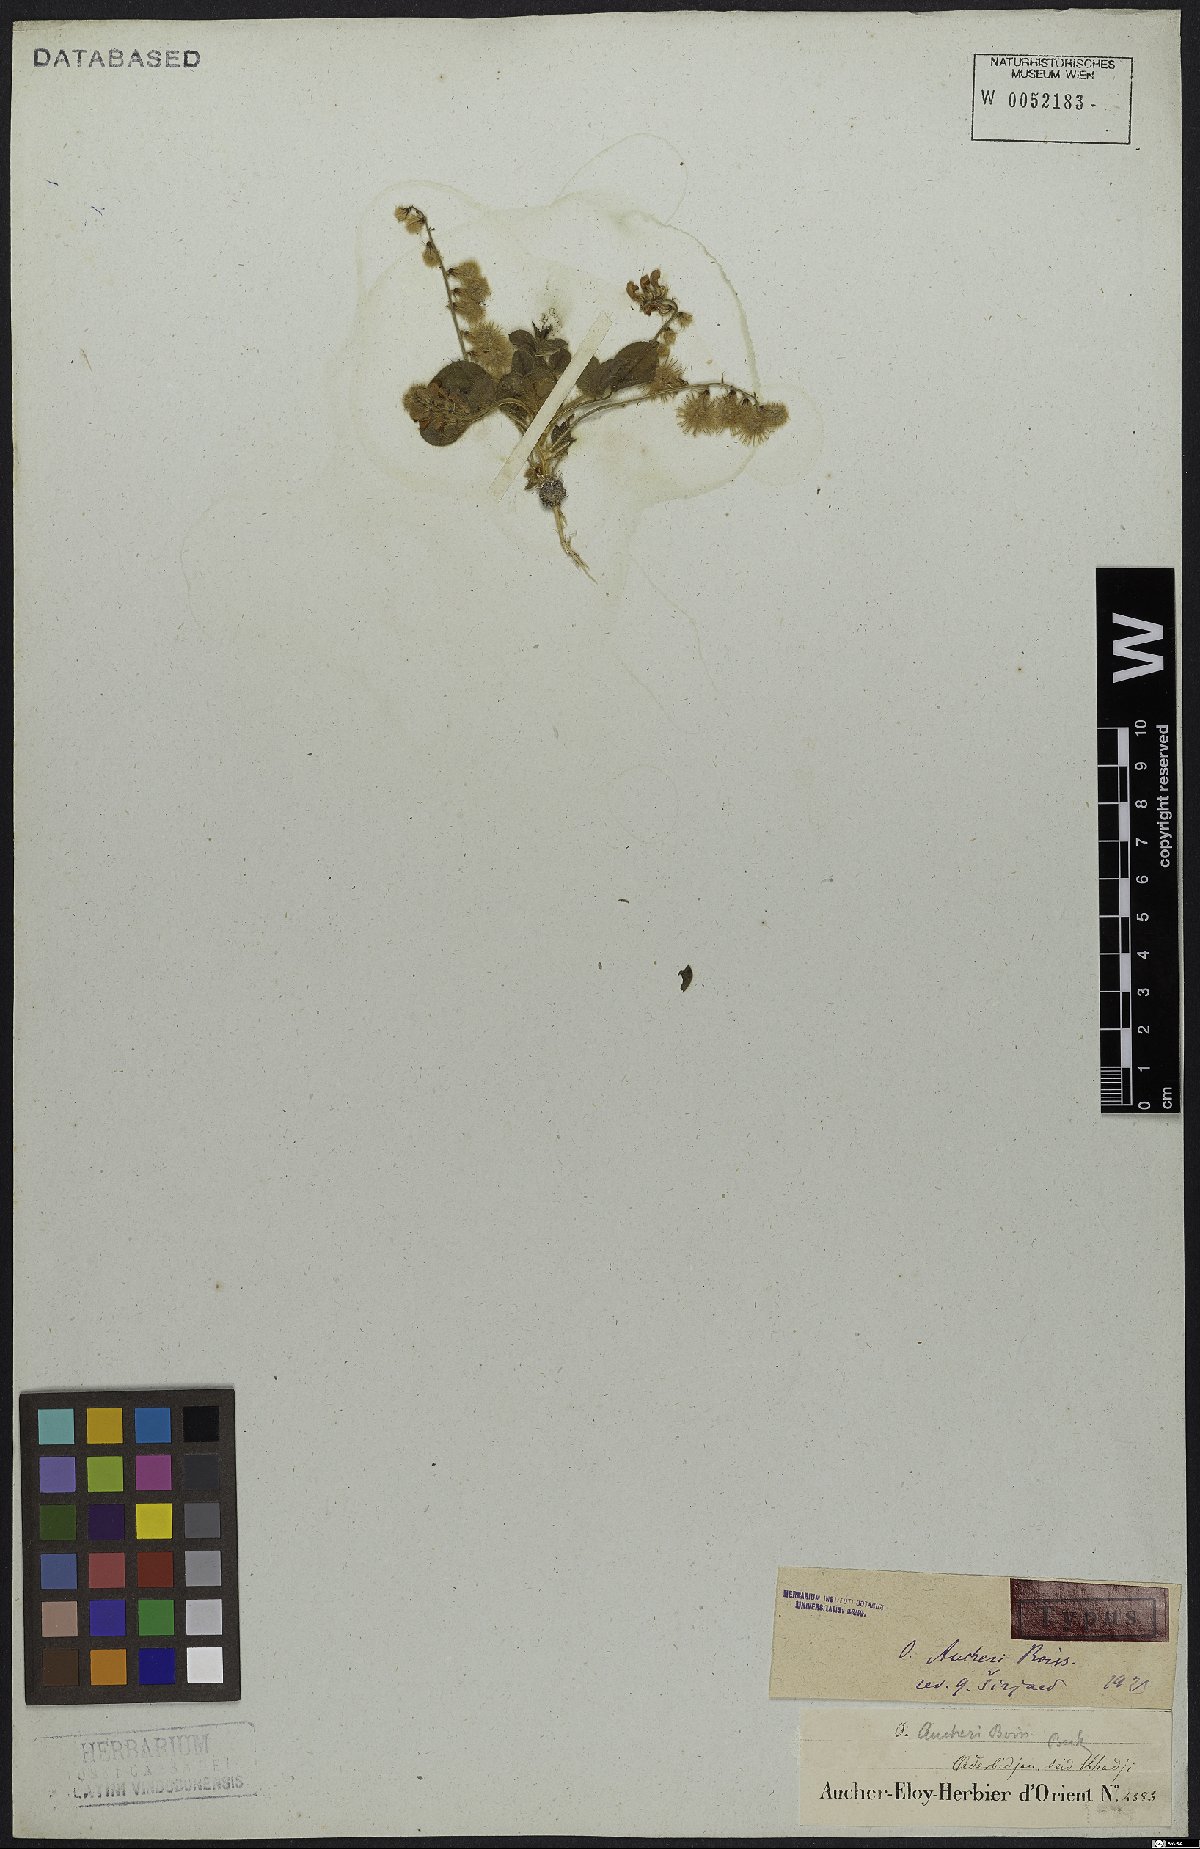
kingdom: Plantae
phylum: Tracheophyta
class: Magnoliopsida
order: Fabales
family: Fabaceae
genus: Onobrychis
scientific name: Onobrychis aucheri
